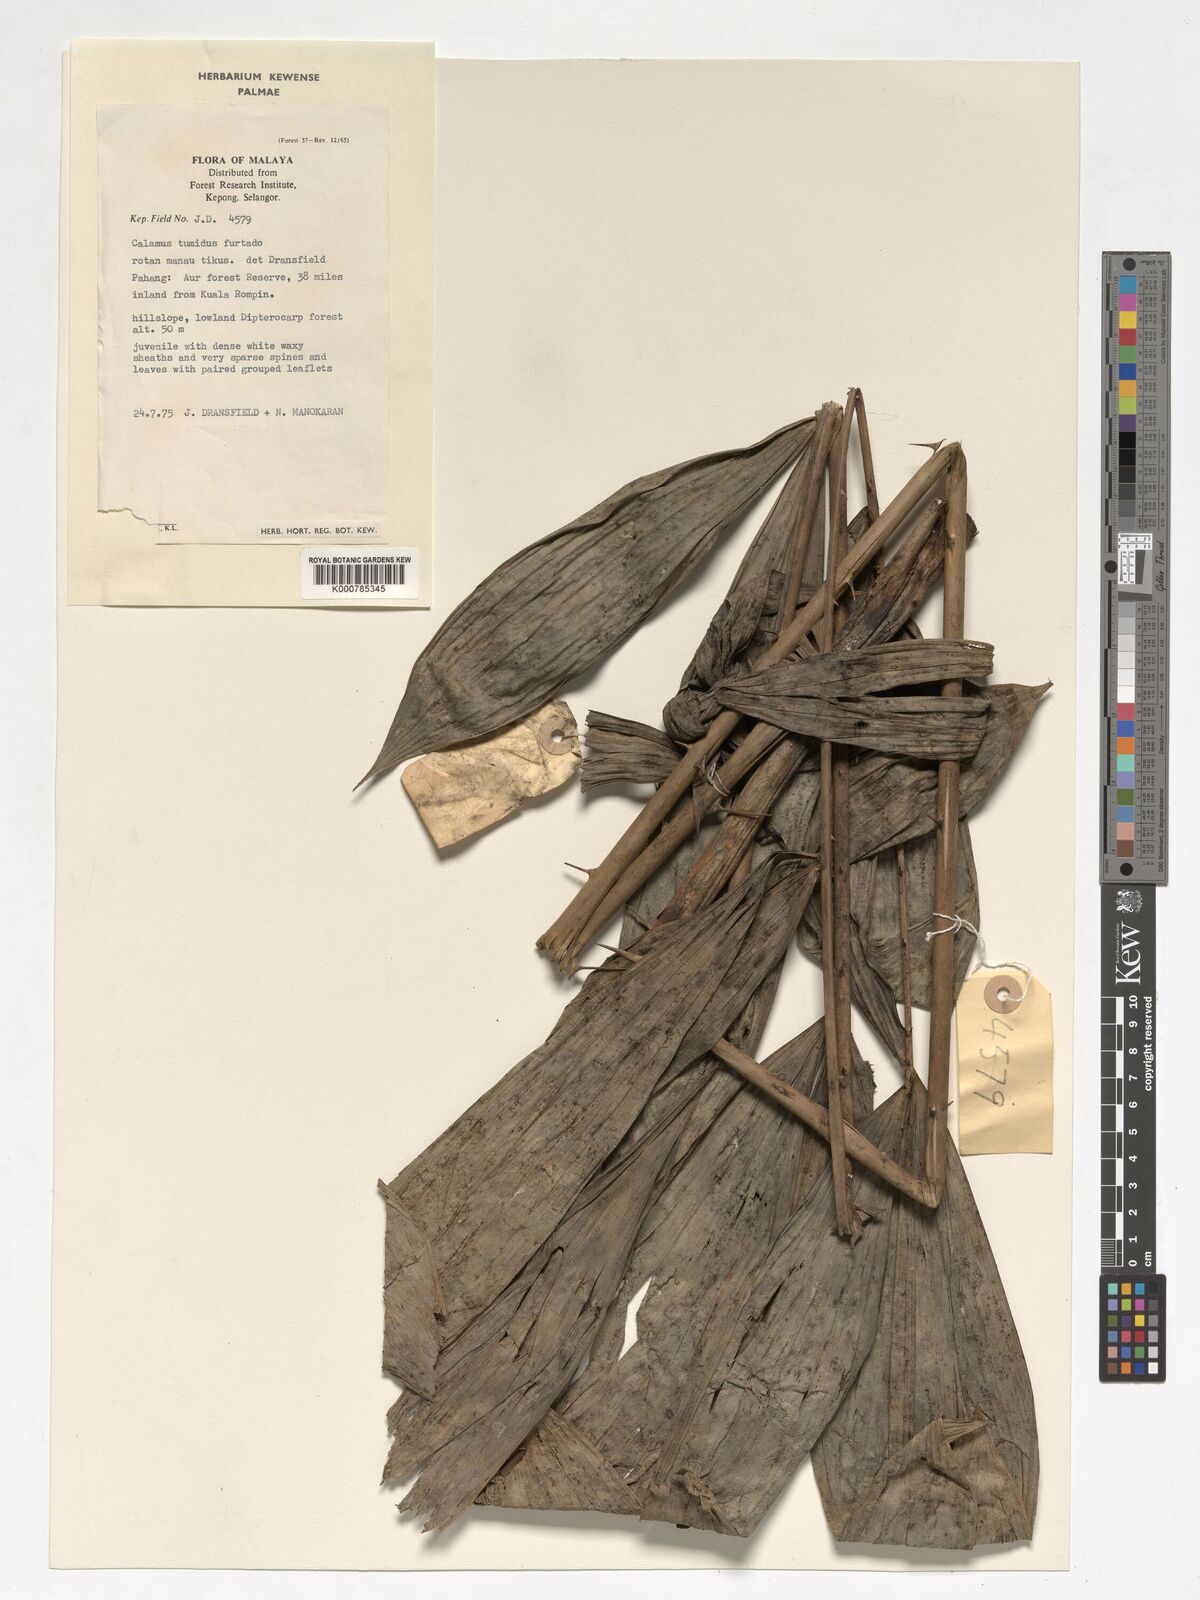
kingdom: Plantae
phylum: Tracheophyta
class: Liliopsida
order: Arecales
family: Arecaceae
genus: Calamus
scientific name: Calamus tumidus
